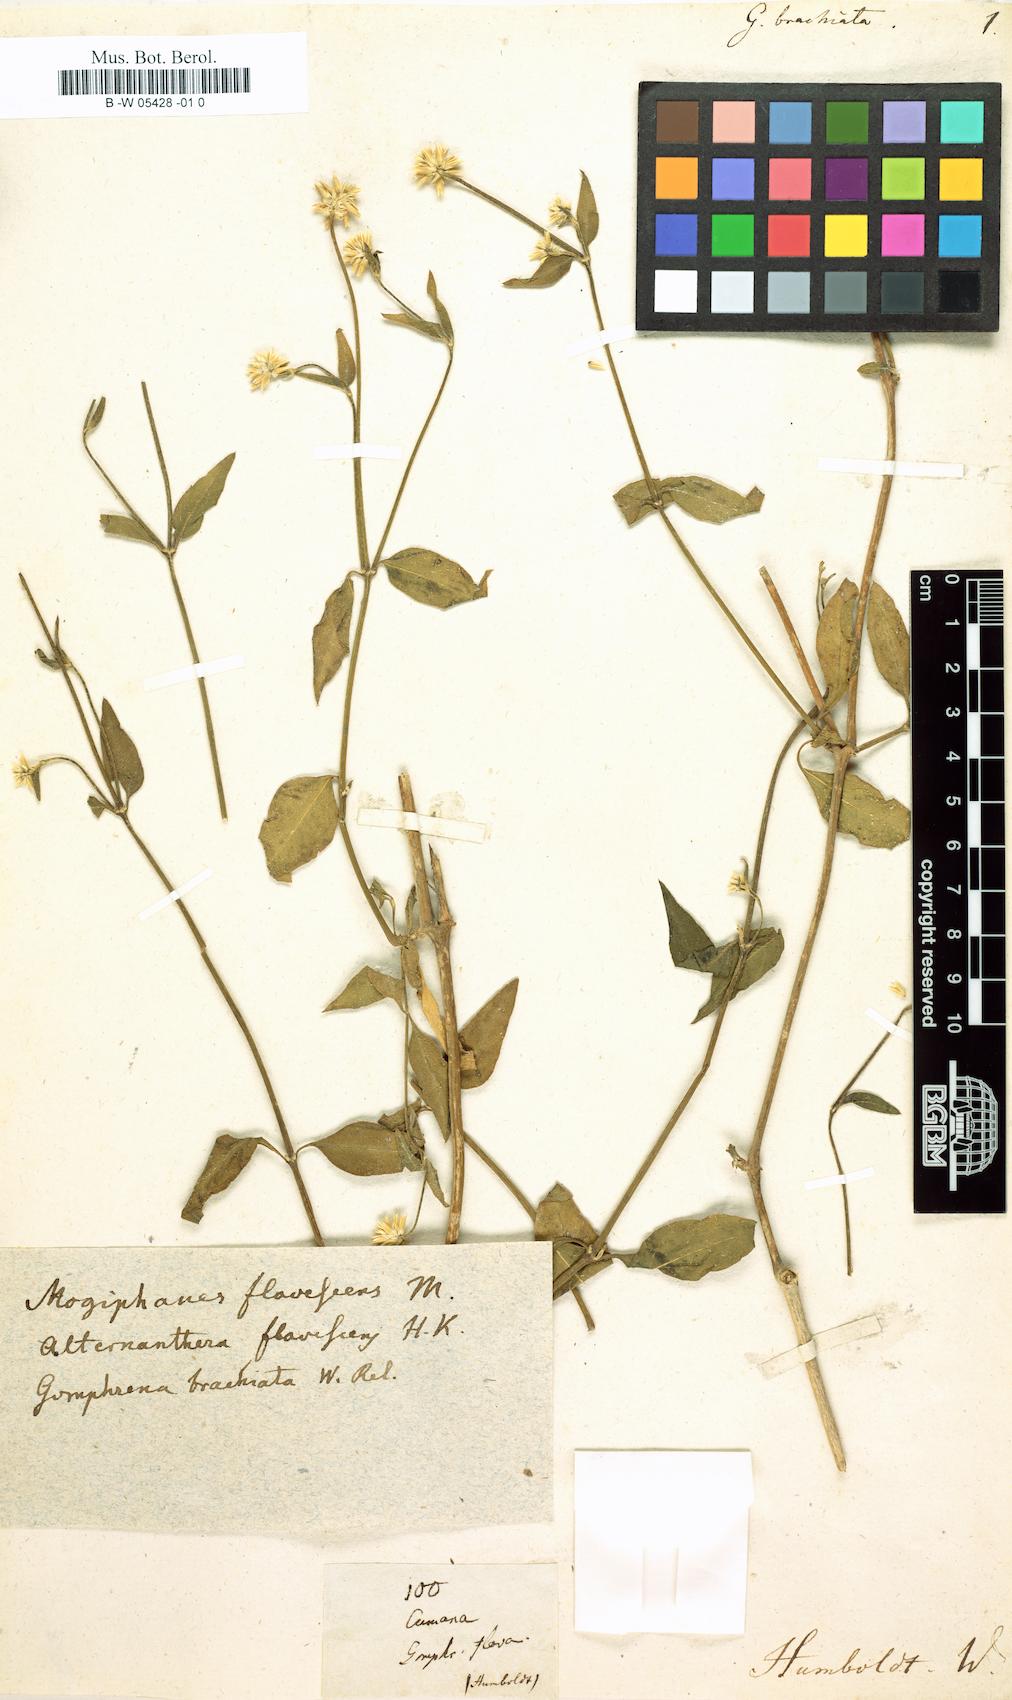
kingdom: Plantae
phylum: Tracheophyta
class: Magnoliopsida
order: Caryophyllales
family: Amaranthaceae
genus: Alternanthera
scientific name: Alternanthera flavescens
